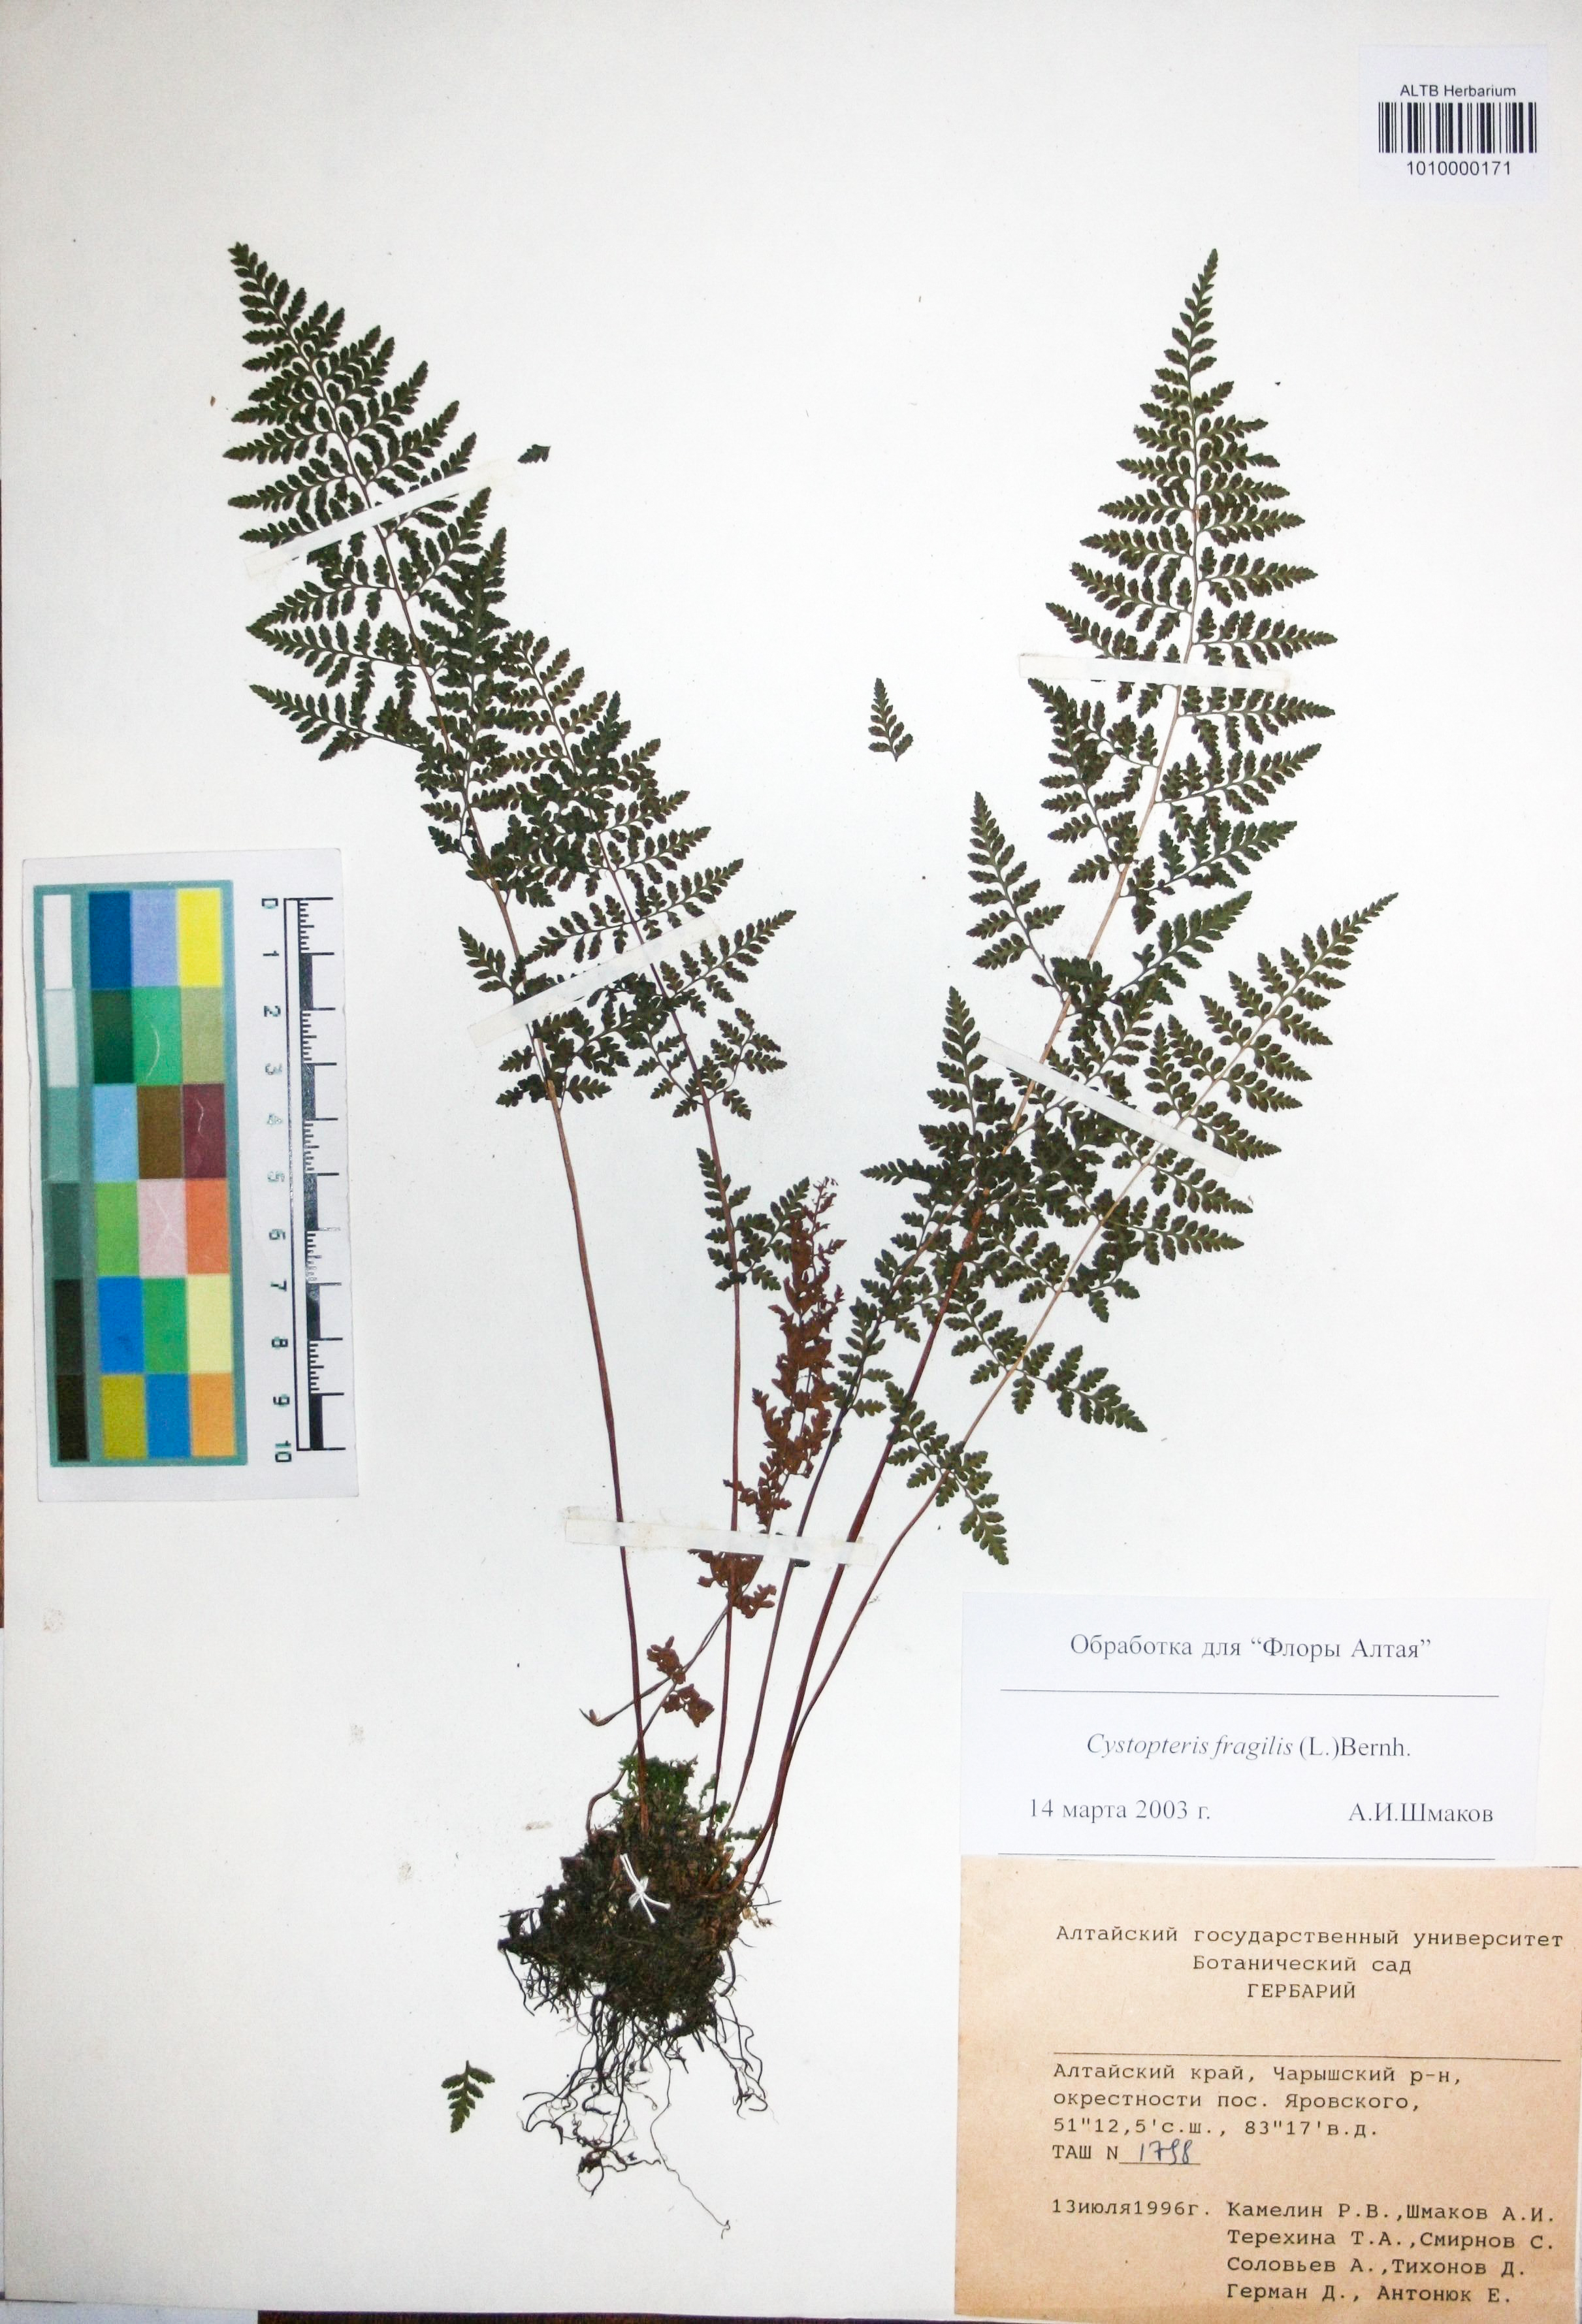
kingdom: Plantae
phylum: Tracheophyta
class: Polypodiopsida
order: Polypodiales
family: Cystopteridaceae
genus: Cystopteris
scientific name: Cystopteris fragilis
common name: Brittle bladder fern
